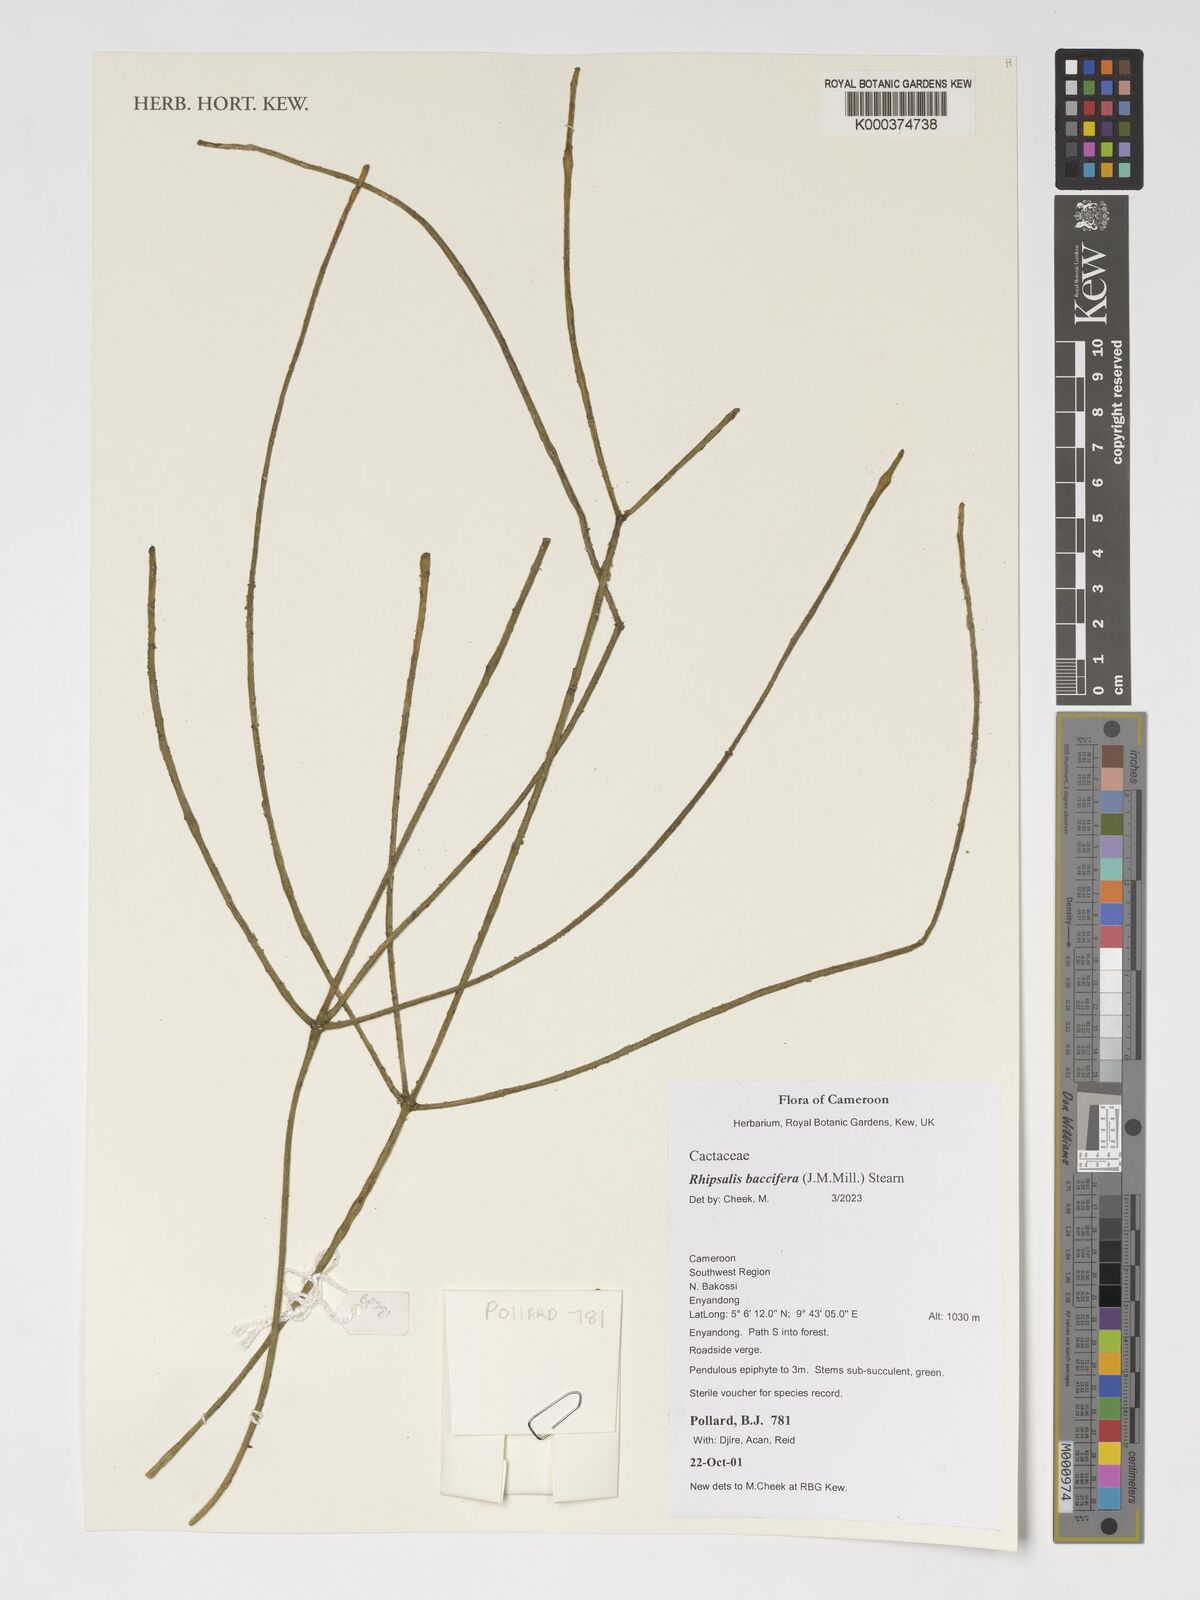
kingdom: Plantae
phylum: Tracheophyta
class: Magnoliopsida
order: Caryophyllales
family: Cactaceae
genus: Rhipsalis
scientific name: Rhipsalis baccifera
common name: Mistletoe cactus
